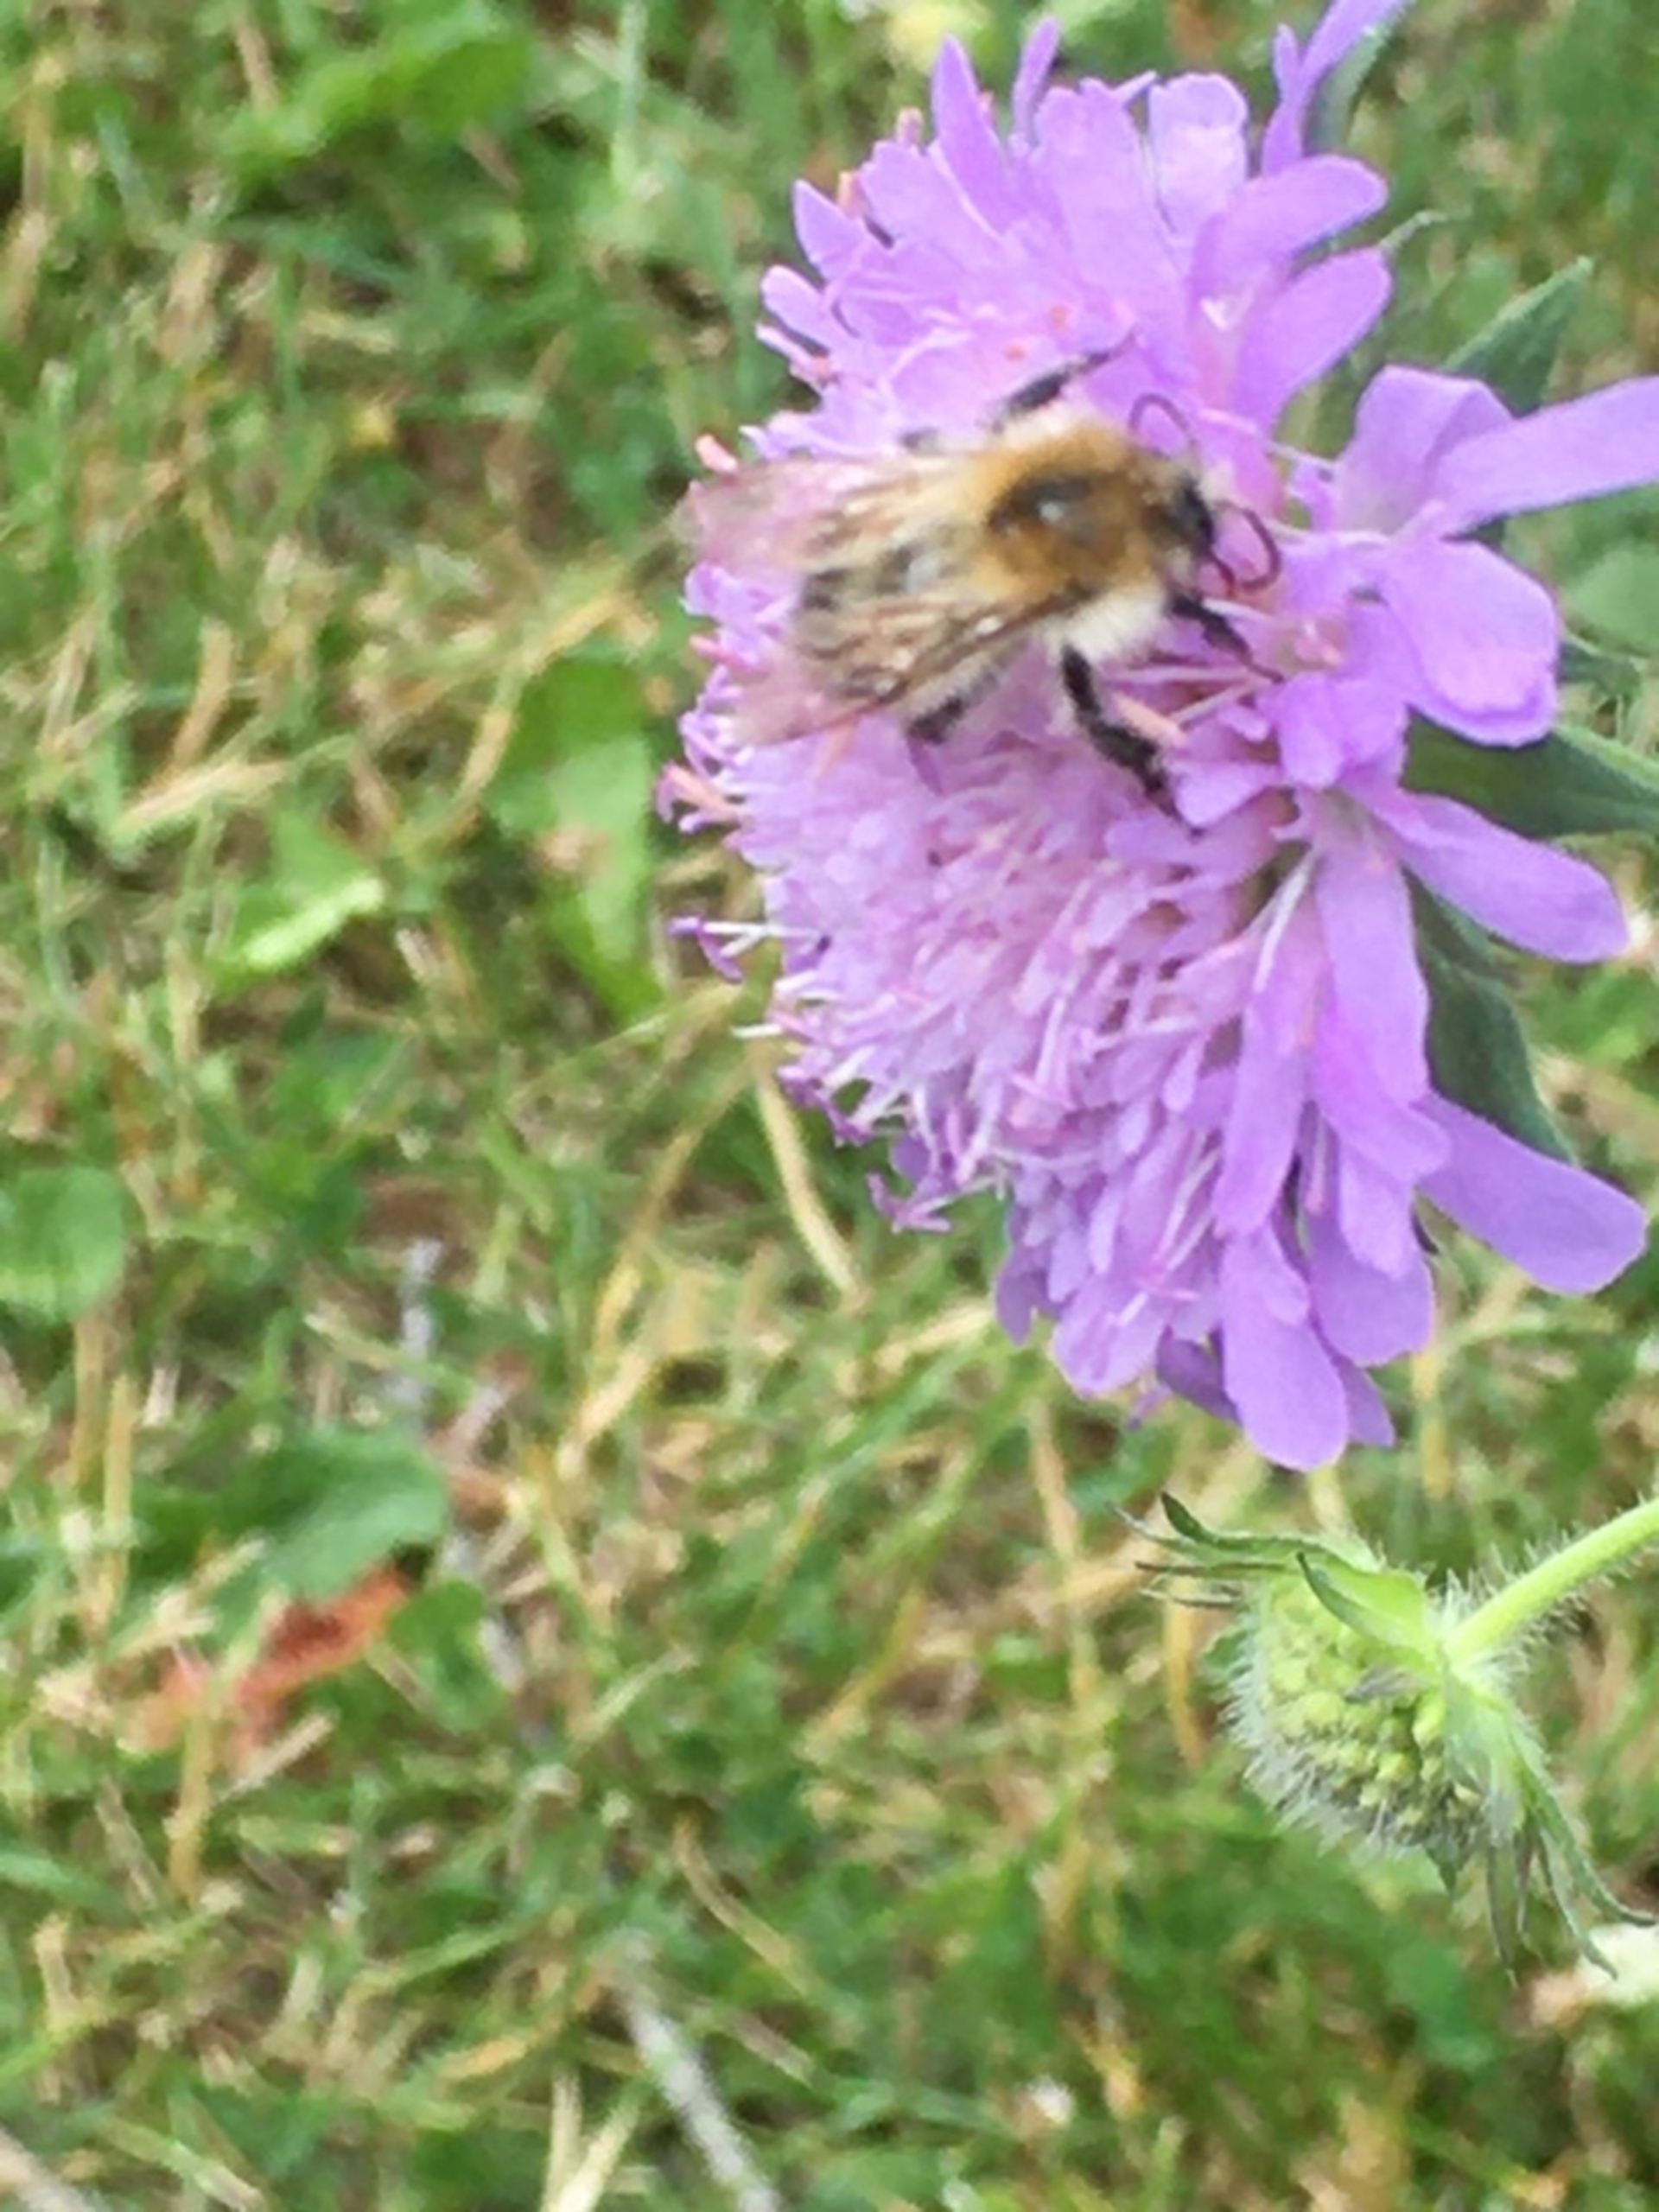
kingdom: Animalia
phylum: Arthropoda
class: Insecta
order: Hymenoptera
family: Apidae
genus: Bombus
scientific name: Bombus pascuorum
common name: Agerhumle
